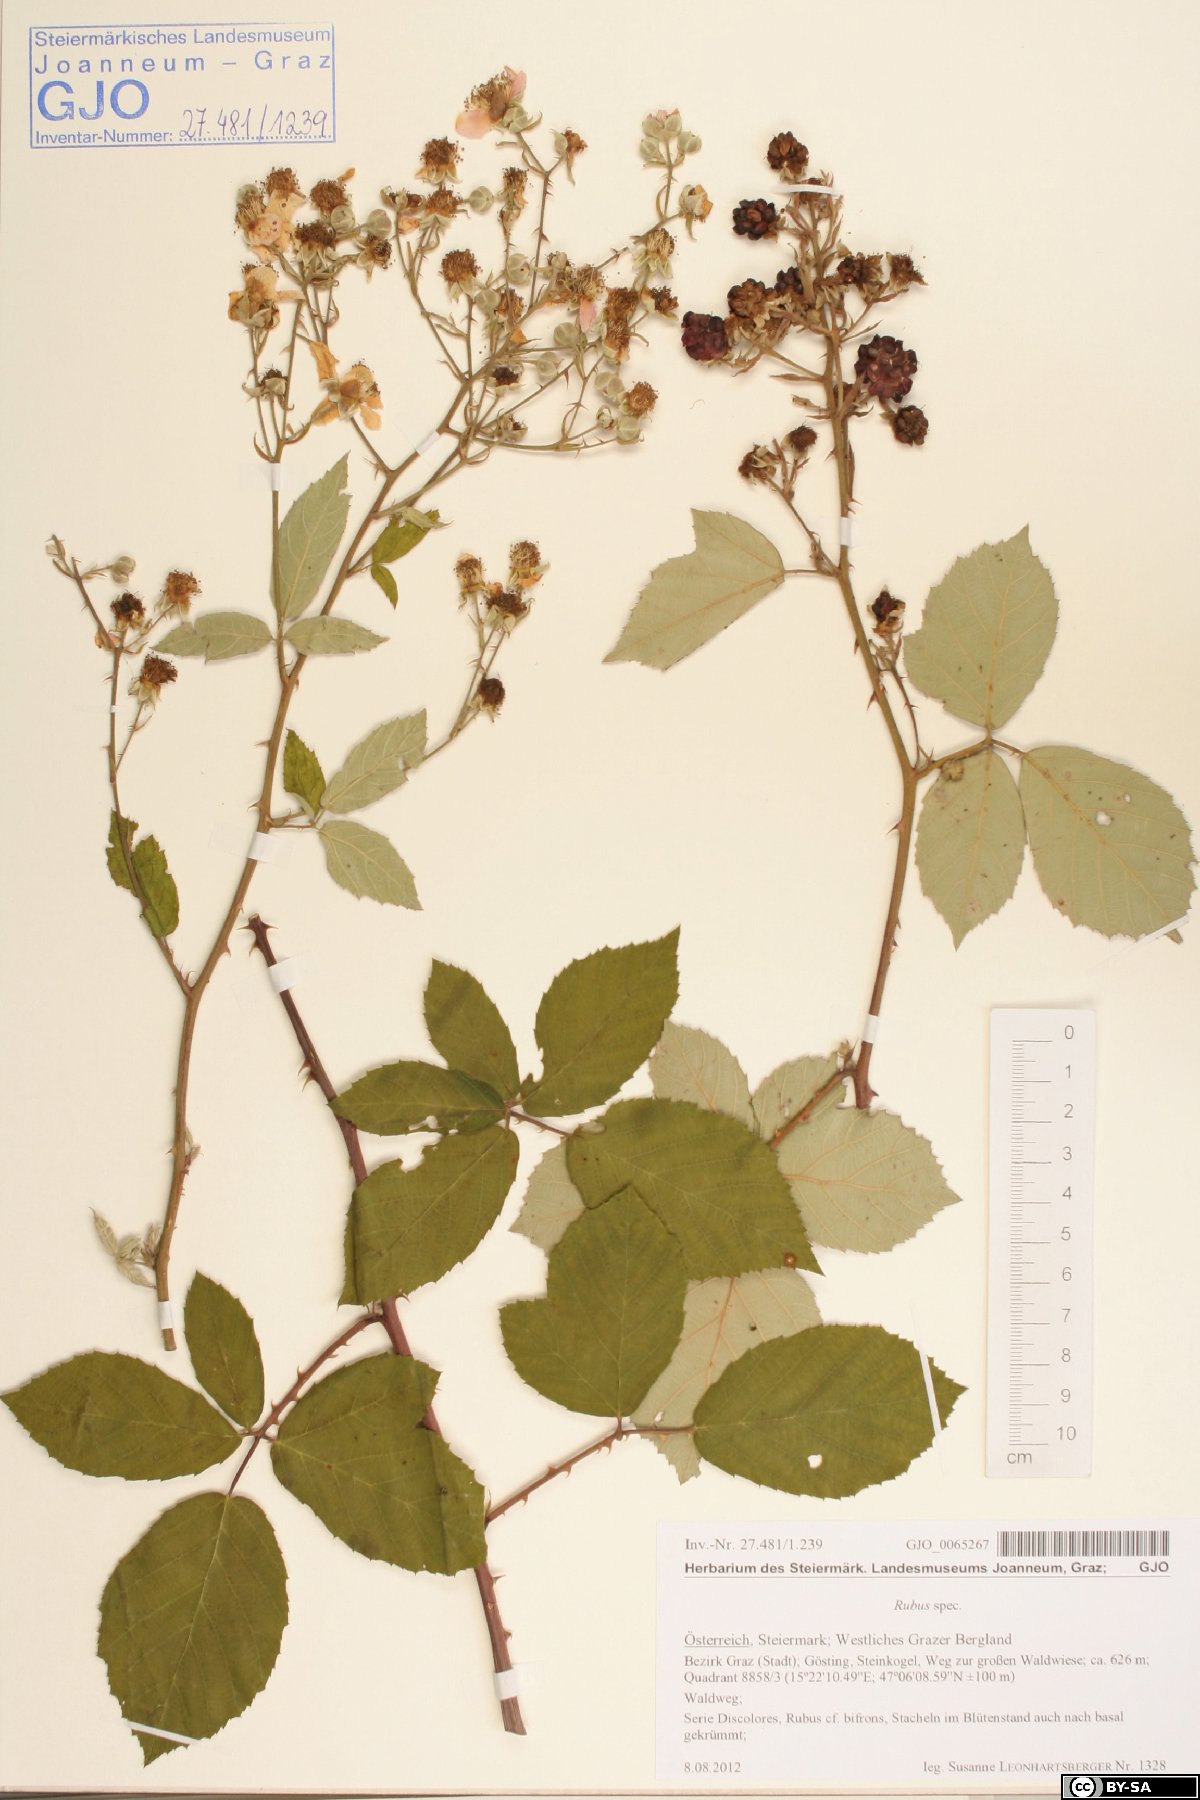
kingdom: Plantae
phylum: Tracheophyta
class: Magnoliopsida
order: Rosales
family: Rosaceae
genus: Rubus
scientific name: Rubus
